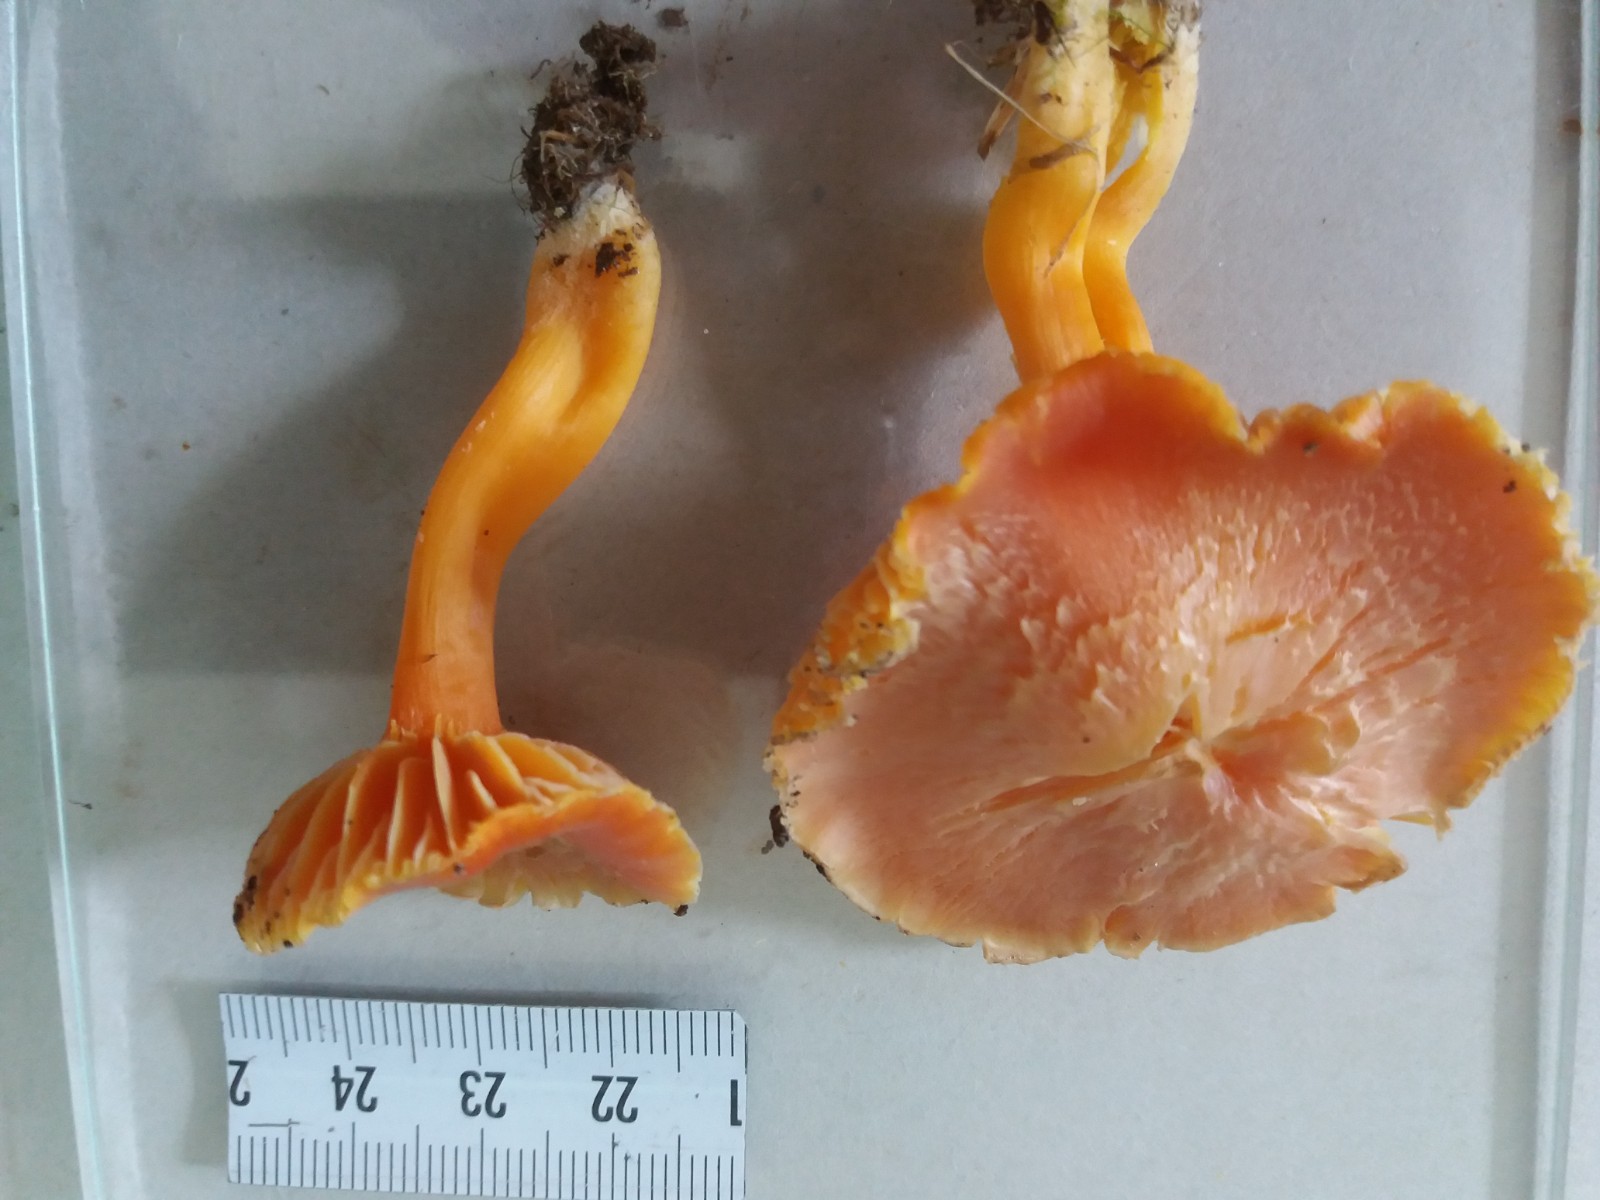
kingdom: Fungi
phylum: Basidiomycota
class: Agaricomycetes
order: Agaricales
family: Hygrophoraceae
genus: Hygrocybe
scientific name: Hygrocybe
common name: vokshat
